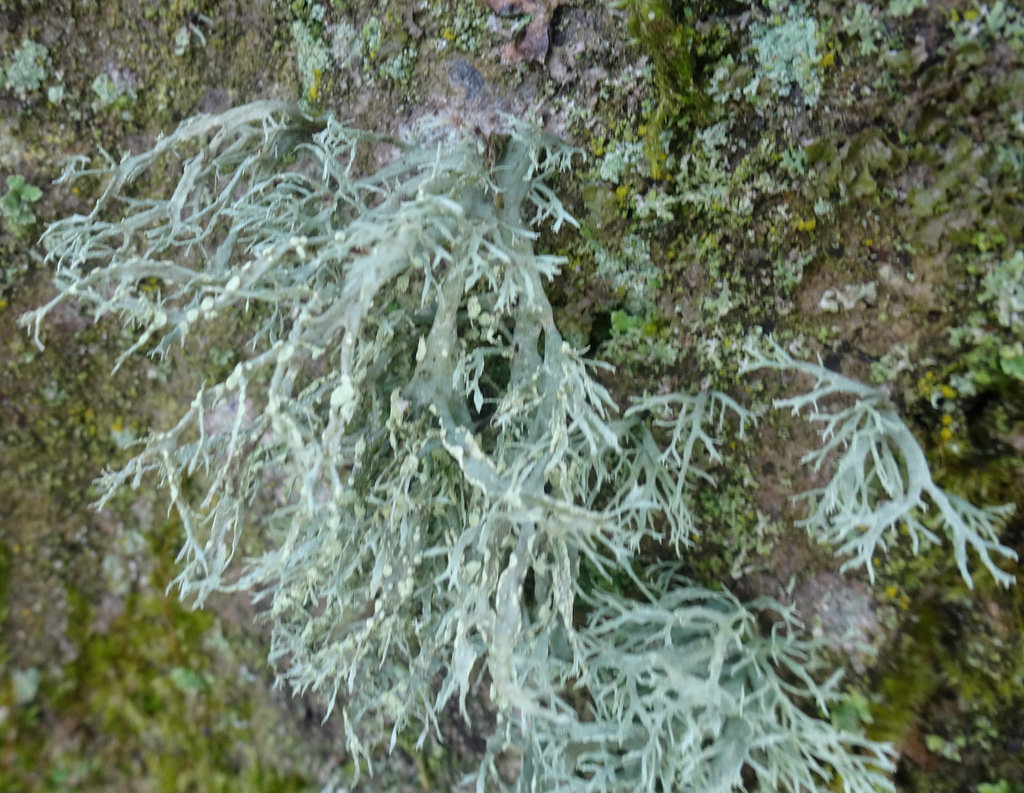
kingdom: Fungi
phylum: Ascomycota
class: Lecanoromycetes
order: Lecanorales
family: Ramalinaceae
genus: Ramalina
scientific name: Ramalina farinacea
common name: melet grenlav
